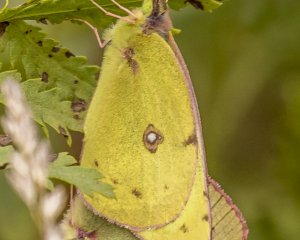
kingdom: Animalia
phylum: Arthropoda
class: Insecta
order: Lepidoptera
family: Pieridae
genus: Colias
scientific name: Colias philodice
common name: Clouded Sulphur
